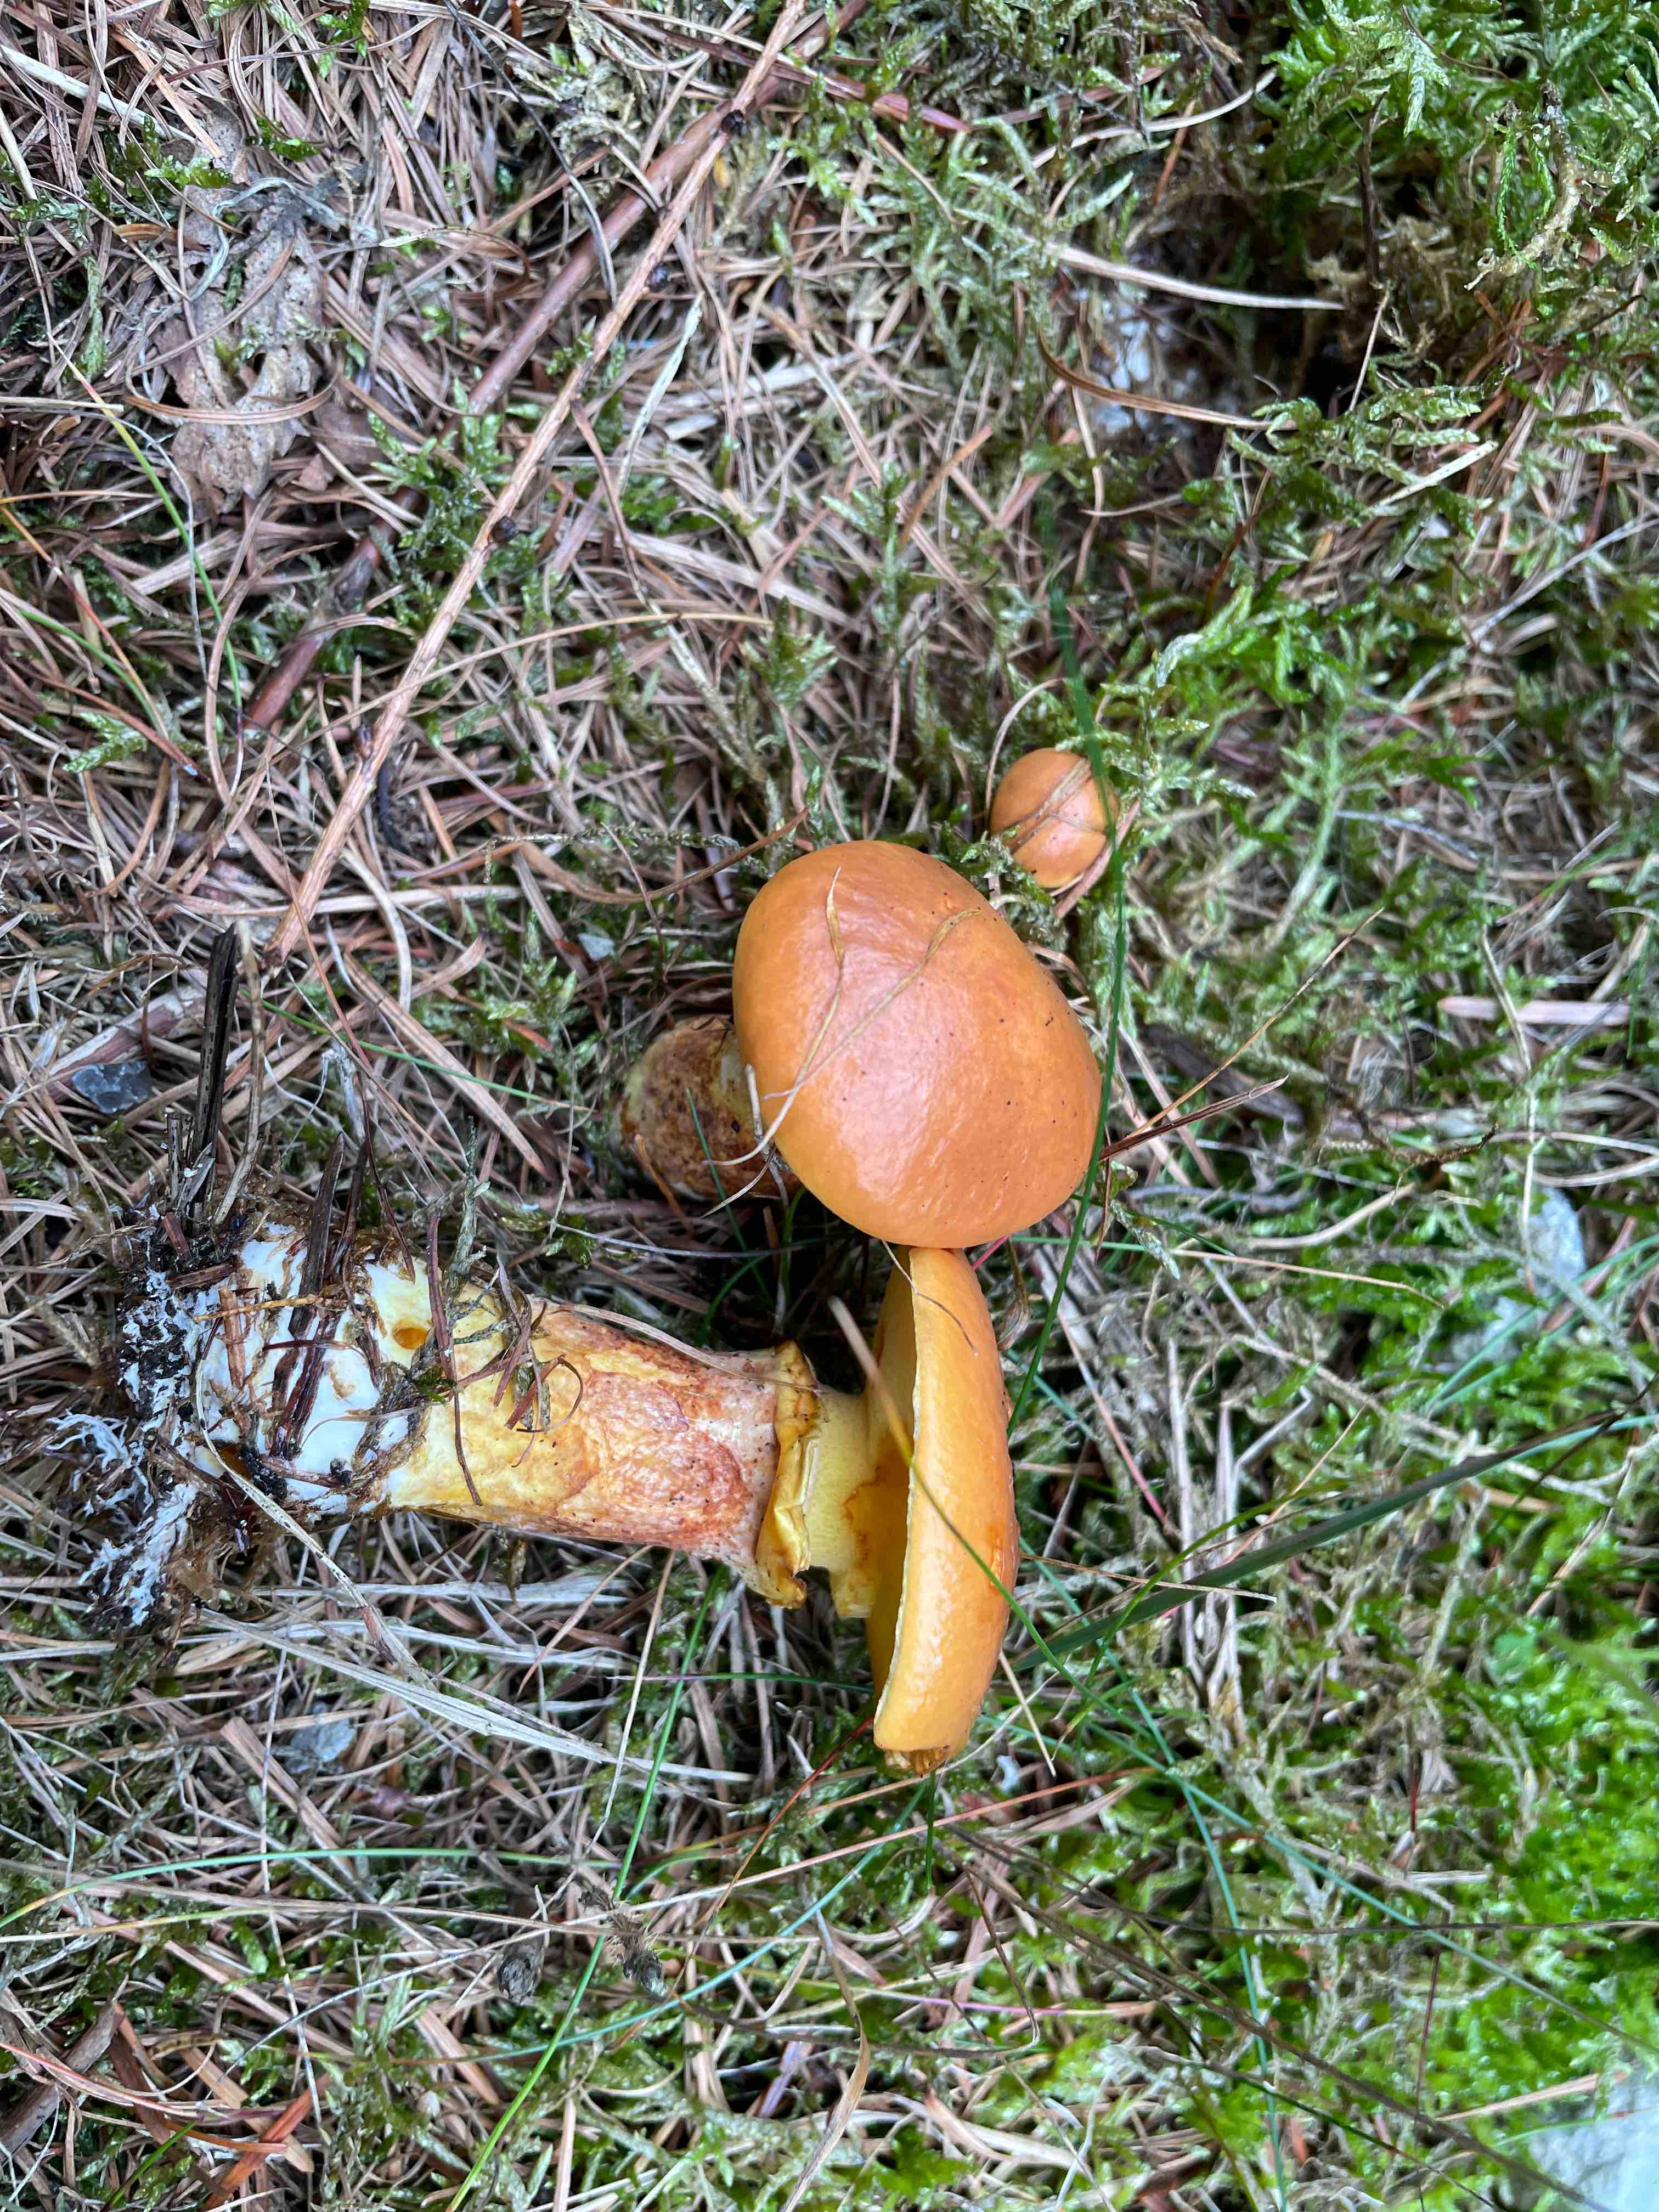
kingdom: Fungi
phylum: Basidiomycota
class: Agaricomycetes
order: Boletales
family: Suillaceae
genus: Suillus
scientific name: Suillus grevillei
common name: lærke-slimrørhat
